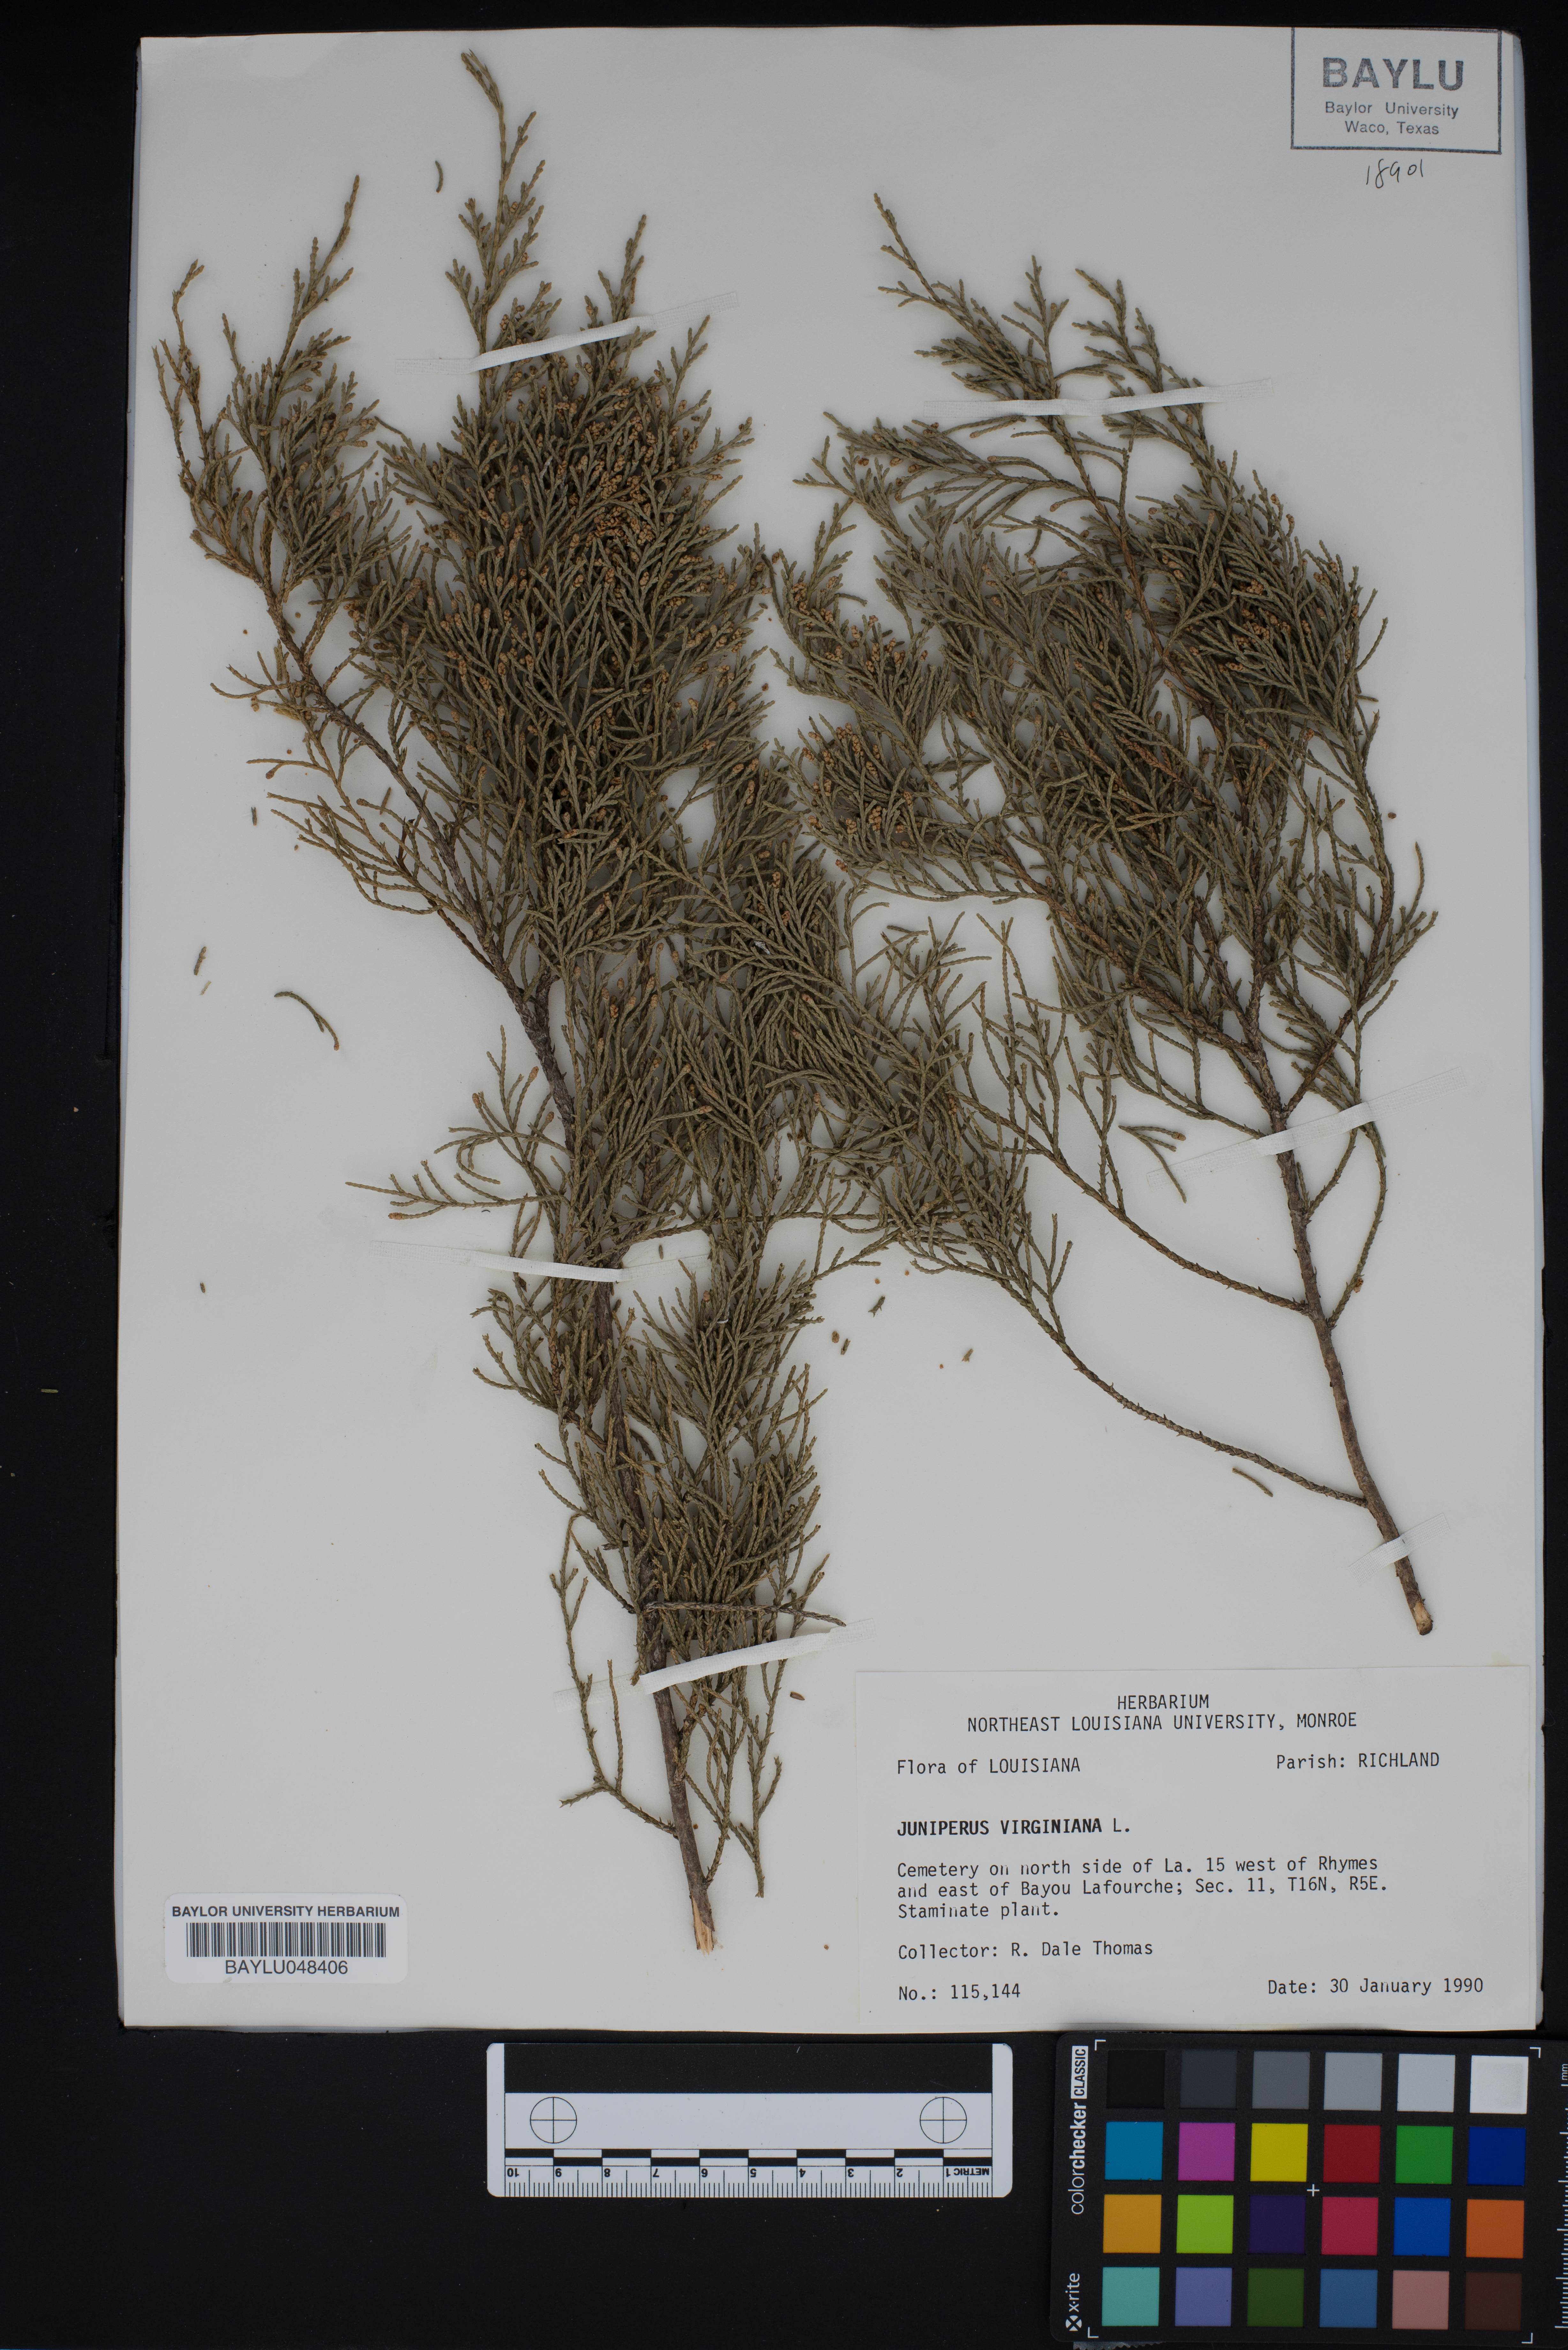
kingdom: Plantae
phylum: Tracheophyta
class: Pinopsida
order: Pinales
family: Cupressaceae
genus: Juniperus
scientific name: Juniperus virginiana
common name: Red juniper
